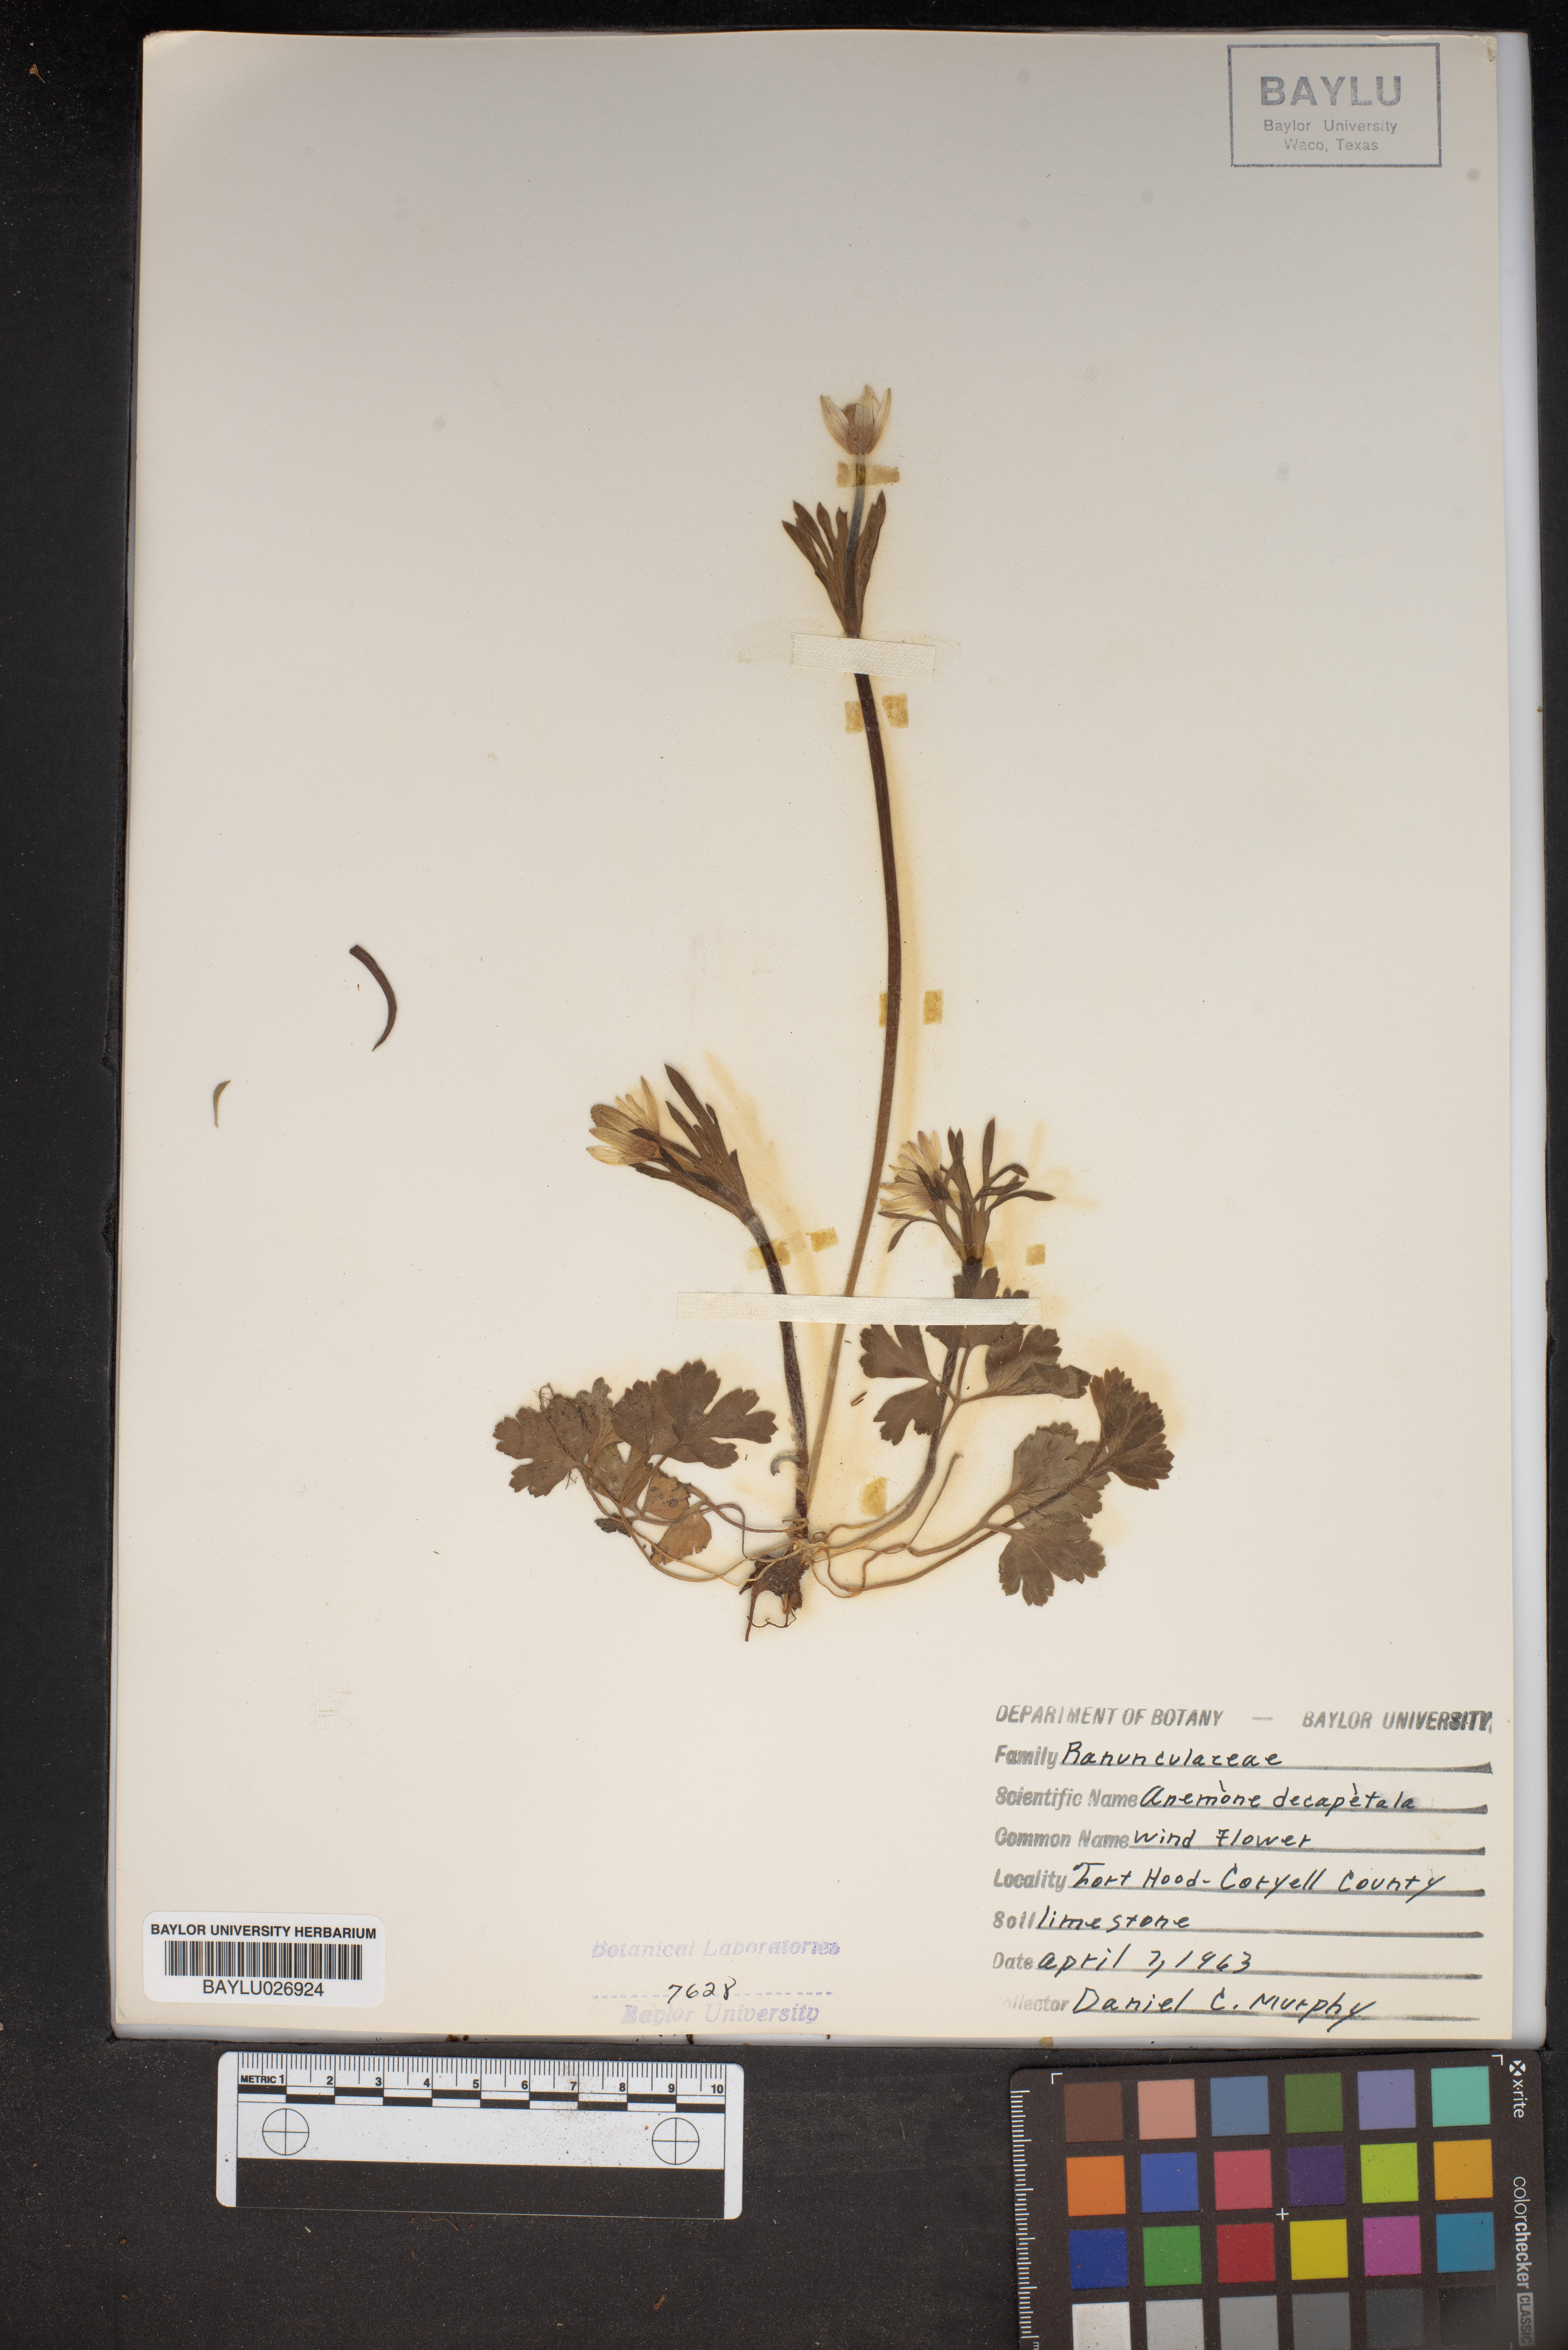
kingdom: Plantae
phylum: Tracheophyta
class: Magnoliopsida
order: Ranunculales
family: Ranunculaceae
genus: Anemone
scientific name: Anemone decapetala
